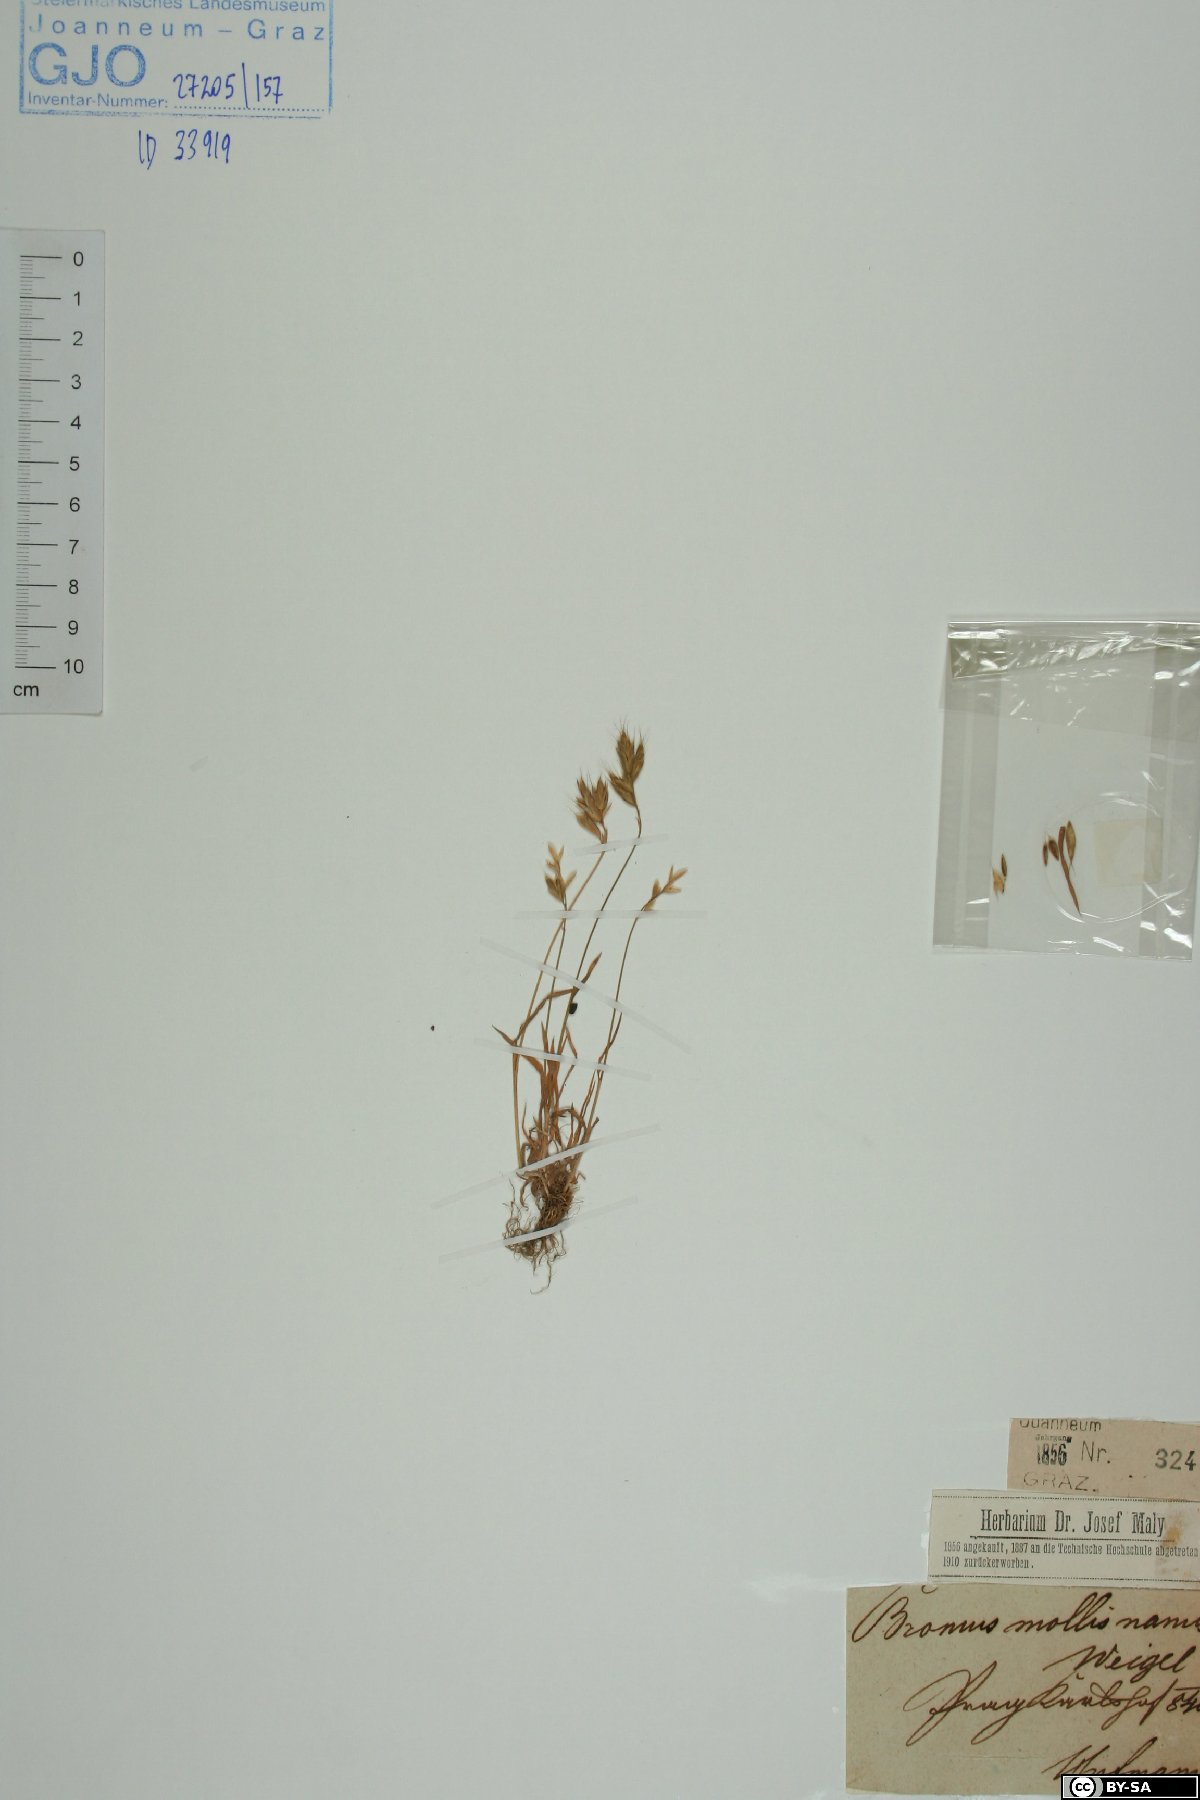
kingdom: Plantae
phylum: Tracheophyta
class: Liliopsida
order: Poales
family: Poaceae
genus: Bromus
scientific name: Bromus hordeaceus
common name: Soft brome
